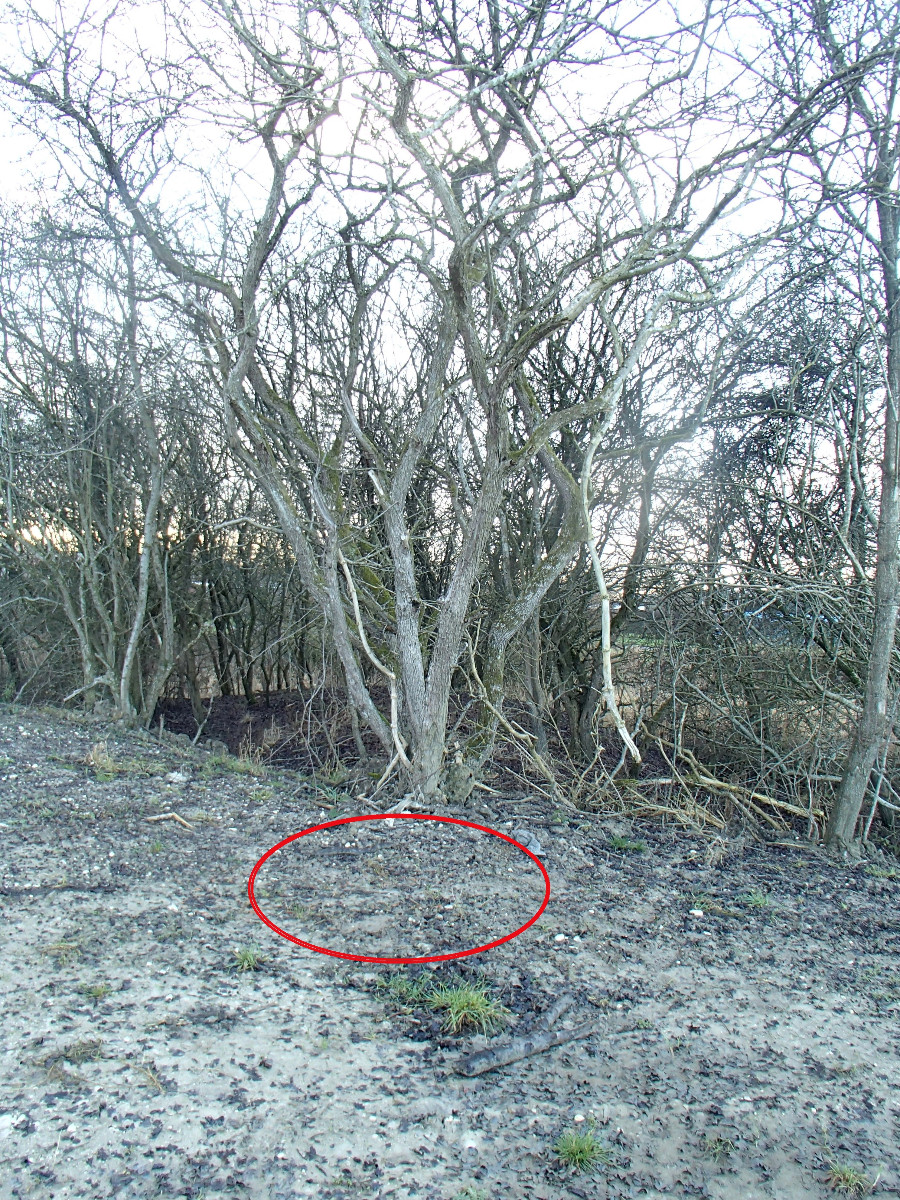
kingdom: Fungi
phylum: Ascomycota
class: Pezizomycetes
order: Pezizales
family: Pyronemataceae
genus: Melastiza
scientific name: Melastiza cornubiensis
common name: mørkrandet rødbæger
